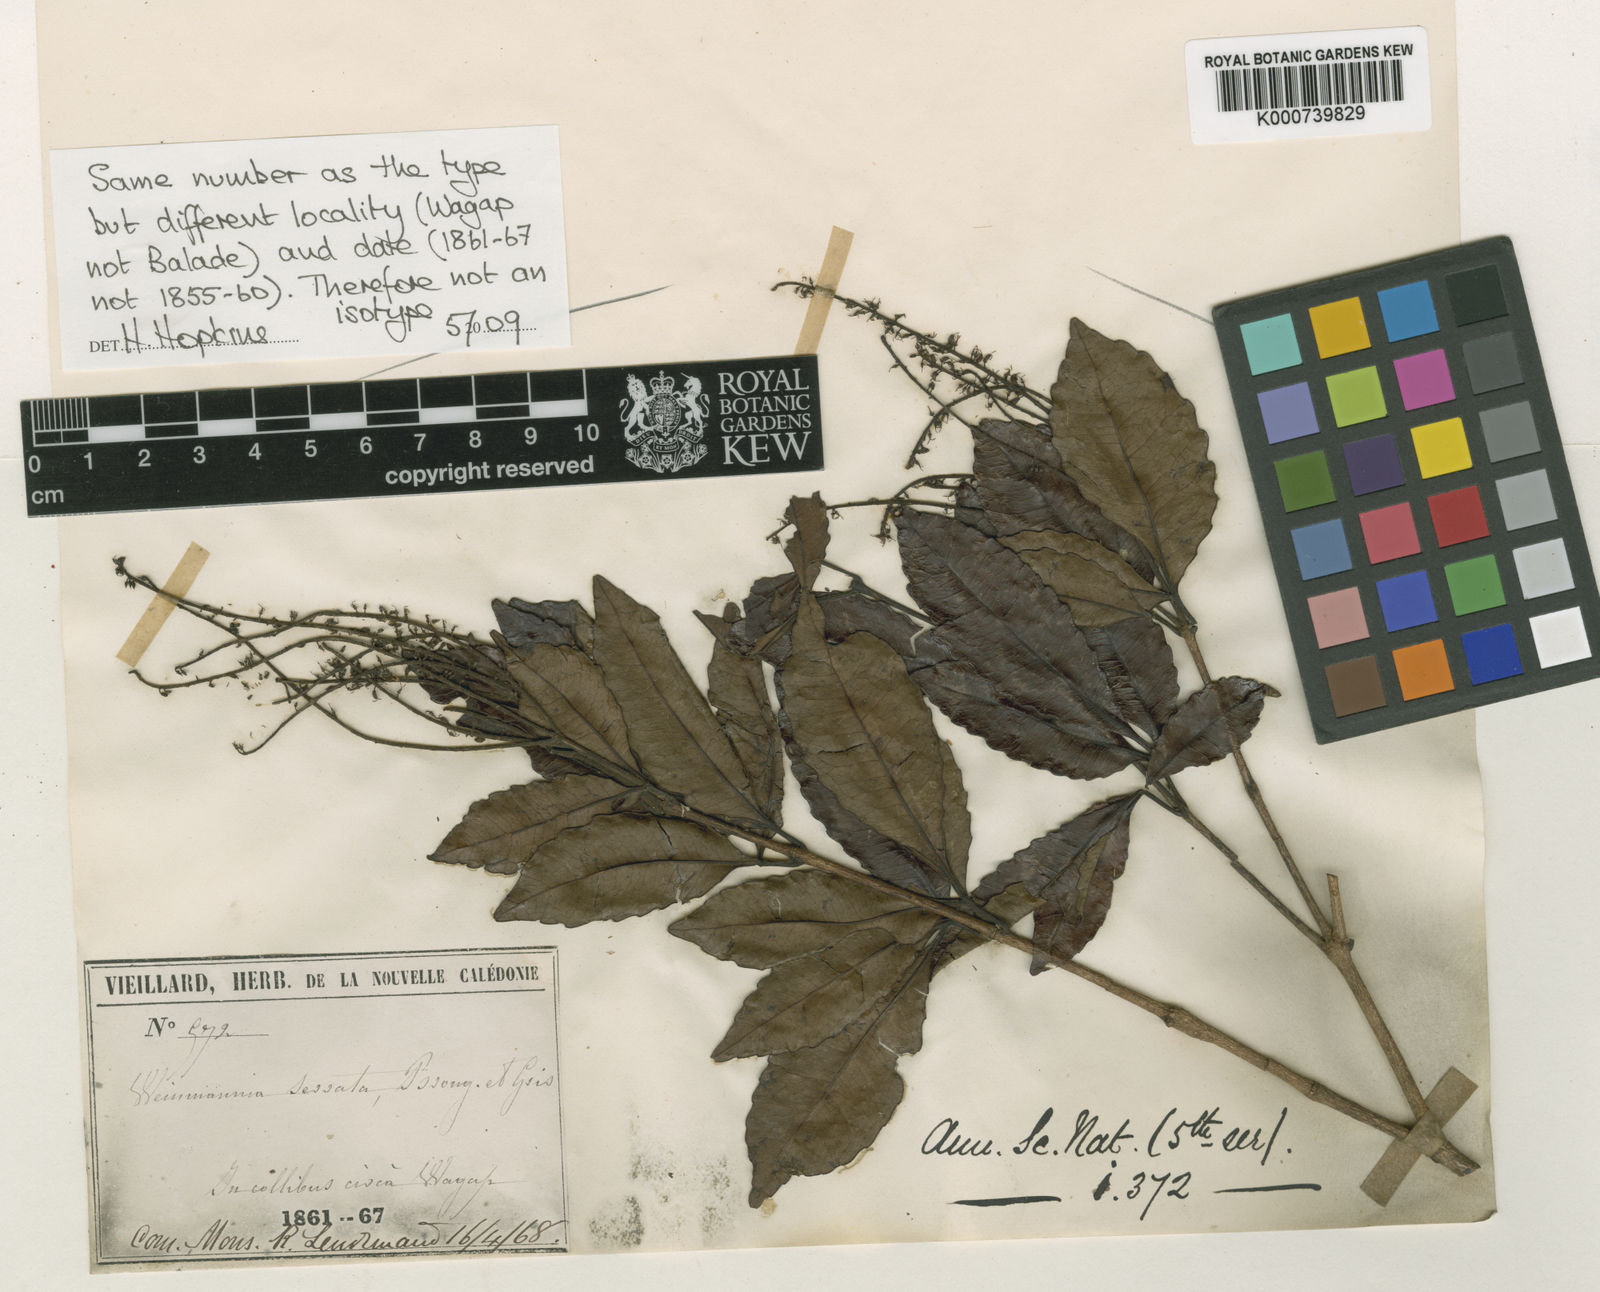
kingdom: Plantae
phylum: Tracheophyta
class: Magnoliopsida
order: Oxalidales
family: Cunoniaceae
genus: Pterophylla
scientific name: Pterophylla serrata
